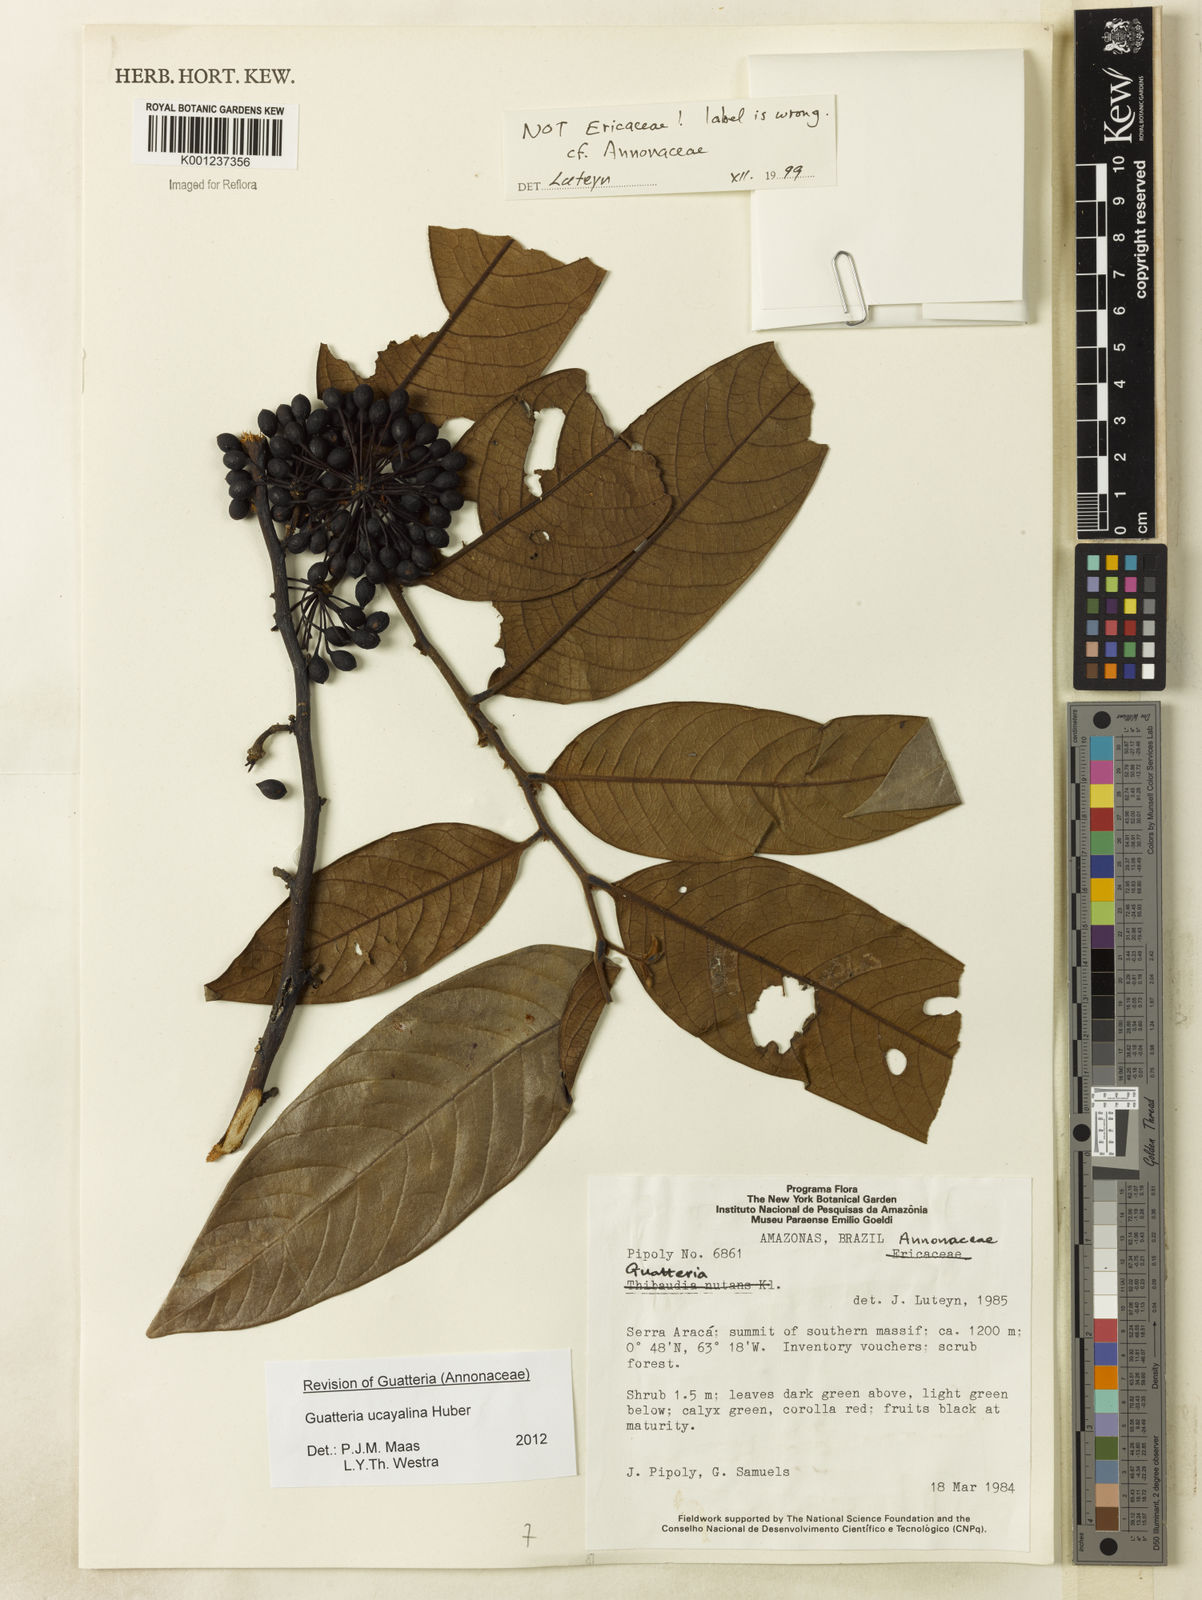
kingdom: Plantae
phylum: Tracheophyta
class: Magnoliopsida
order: Magnoliales
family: Annonaceae
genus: Guatteria
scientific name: Guatteria blepharophylla
